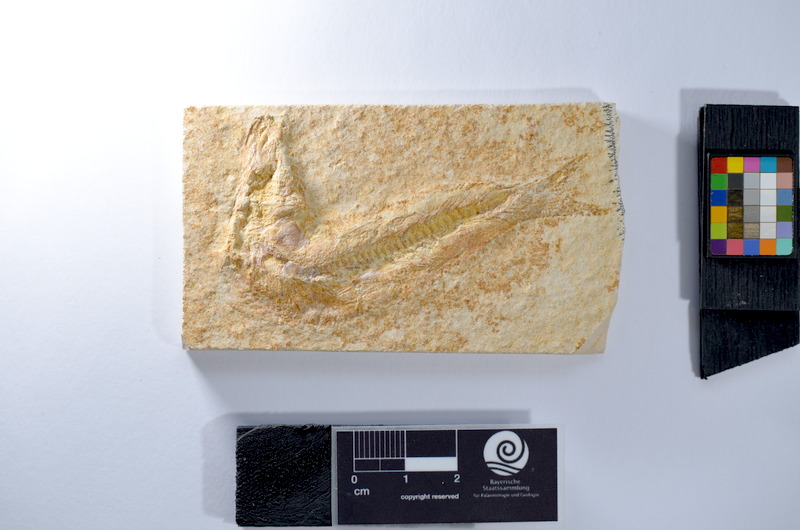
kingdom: Animalia
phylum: Chordata
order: Salmoniformes
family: Orthogonikleithridae
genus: Leptolepides
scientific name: Leptolepides
